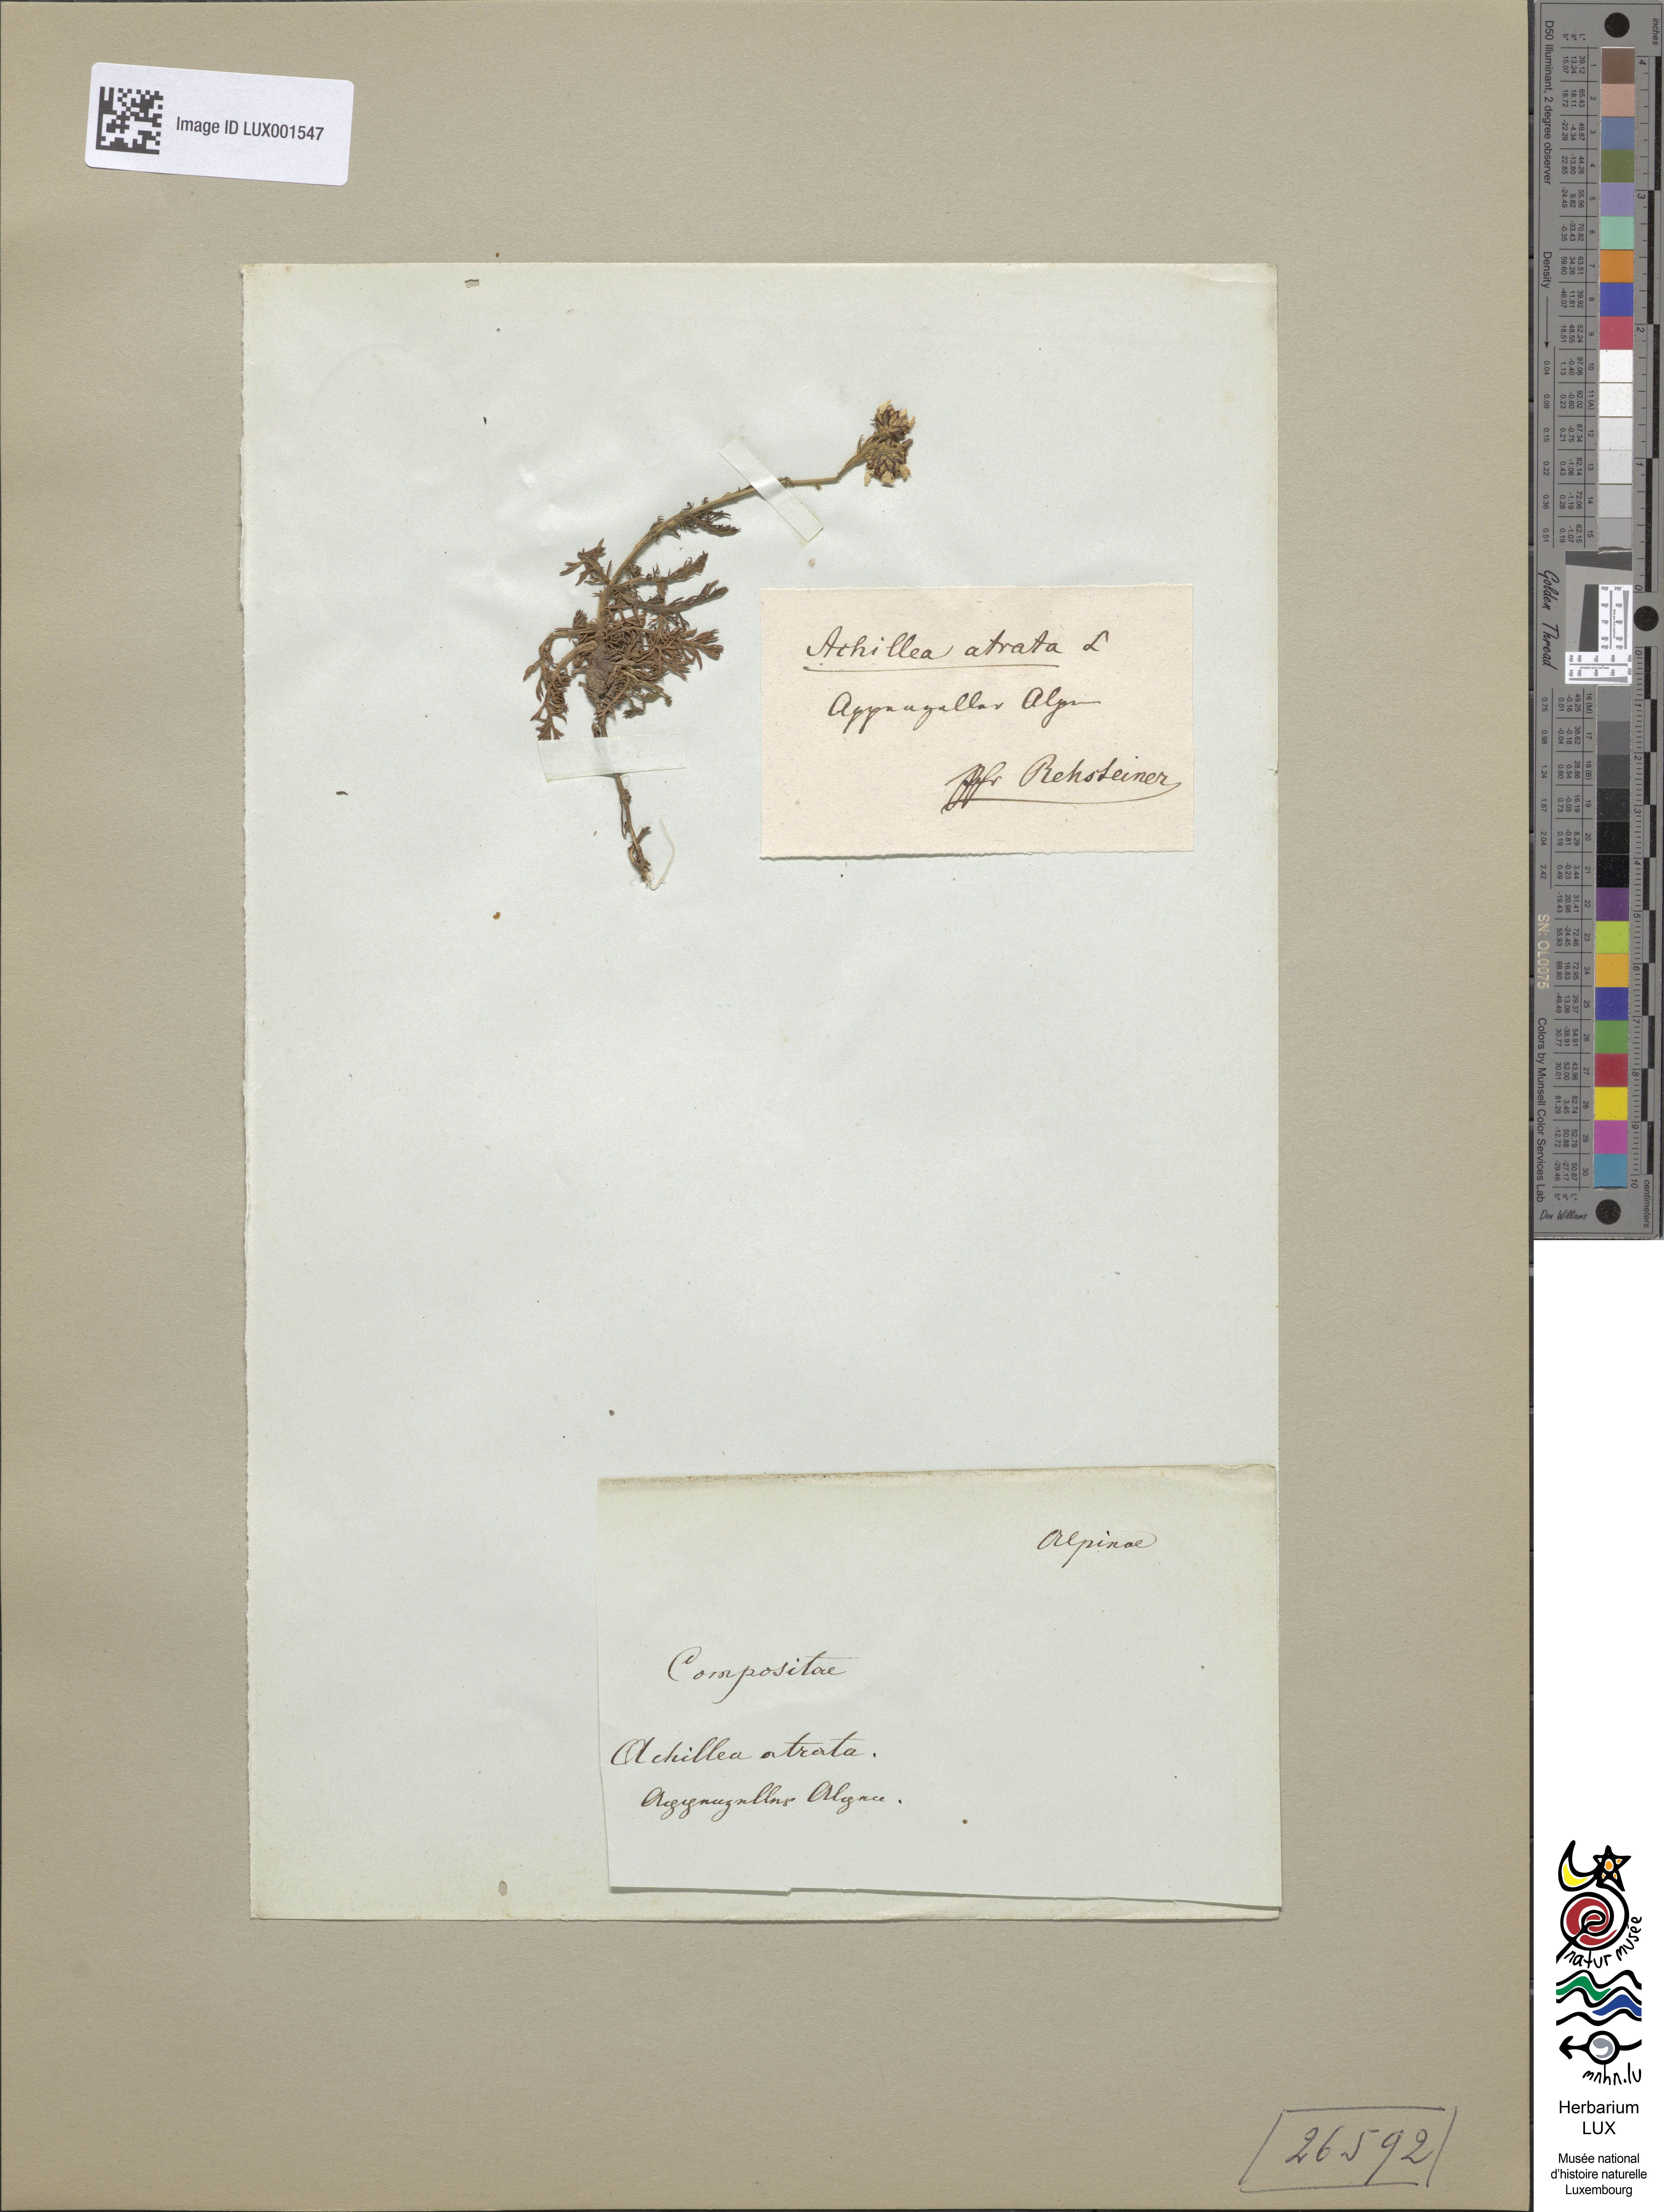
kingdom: Plantae
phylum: Tracheophyta
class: Magnoliopsida
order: Asterales
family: Asteraceae
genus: Achillea
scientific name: Achillea atrata
